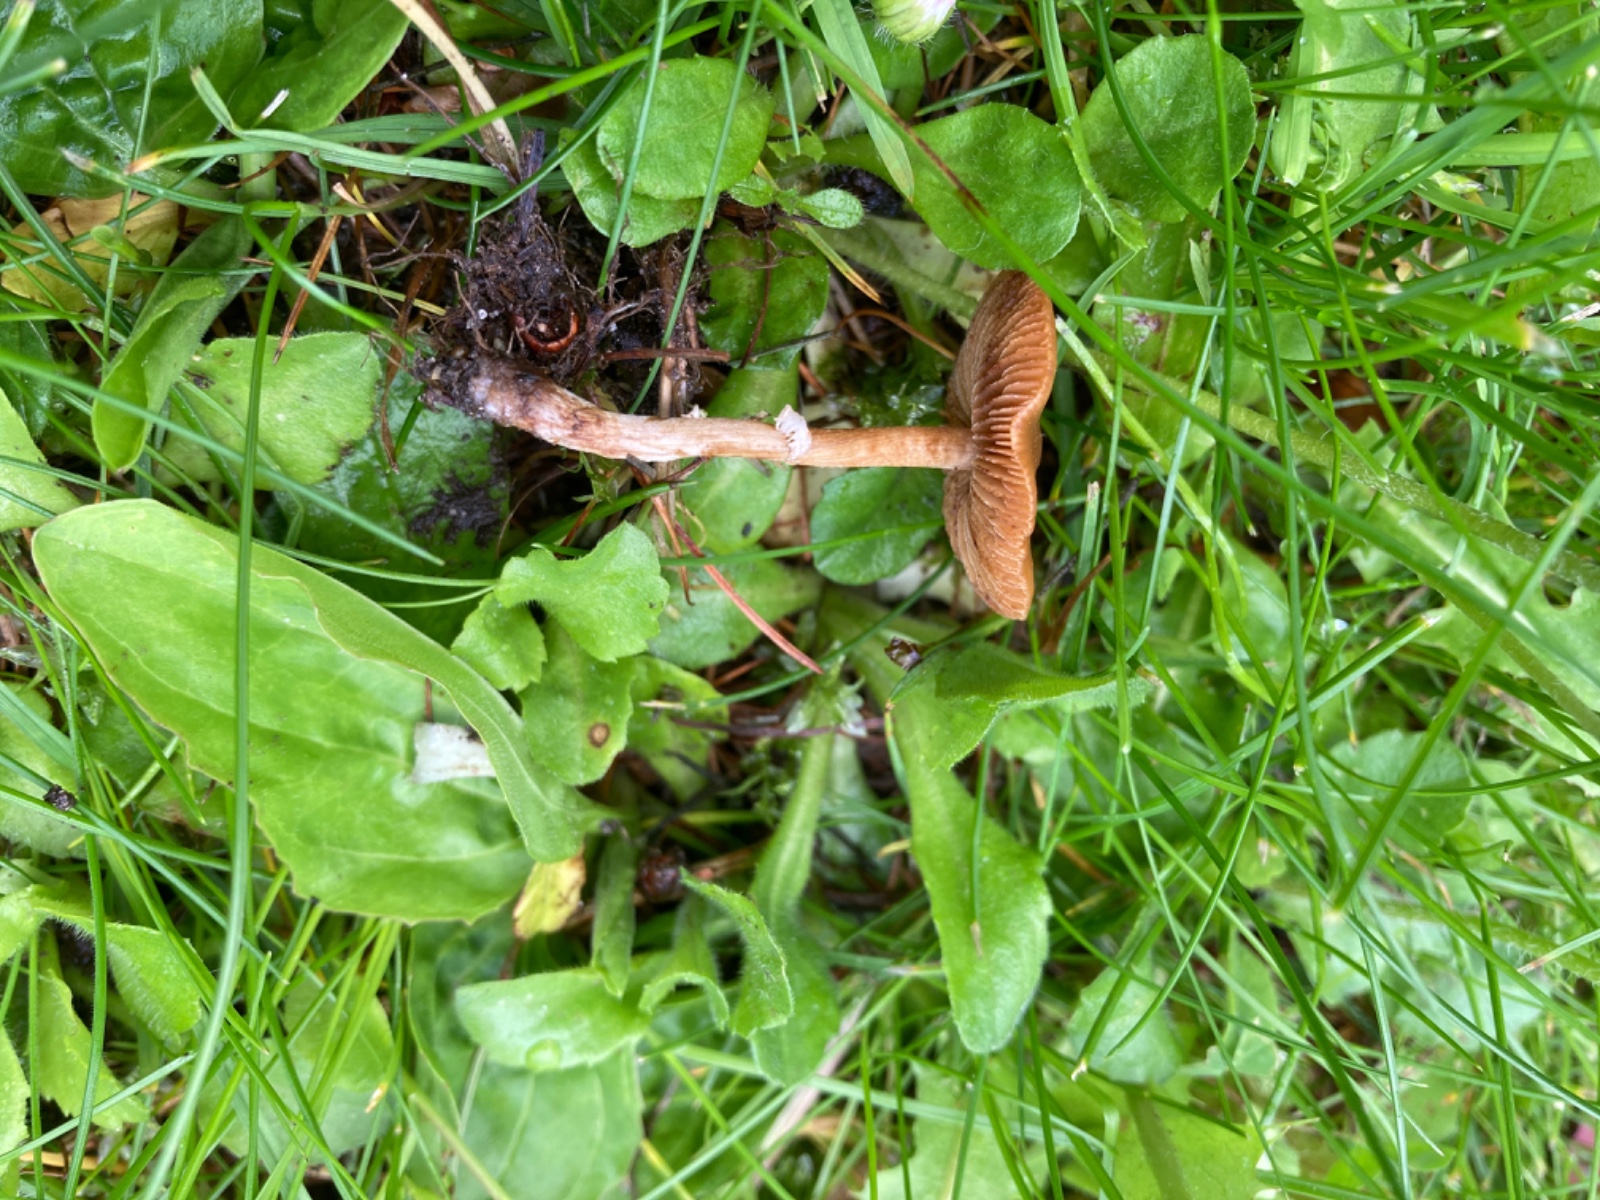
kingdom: Fungi
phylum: Basidiomycota
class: Agaricomycetes
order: Agaricales
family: Bolbitiaceae
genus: Conocybe
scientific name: Conocybe aporos
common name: tidlig dansehat
